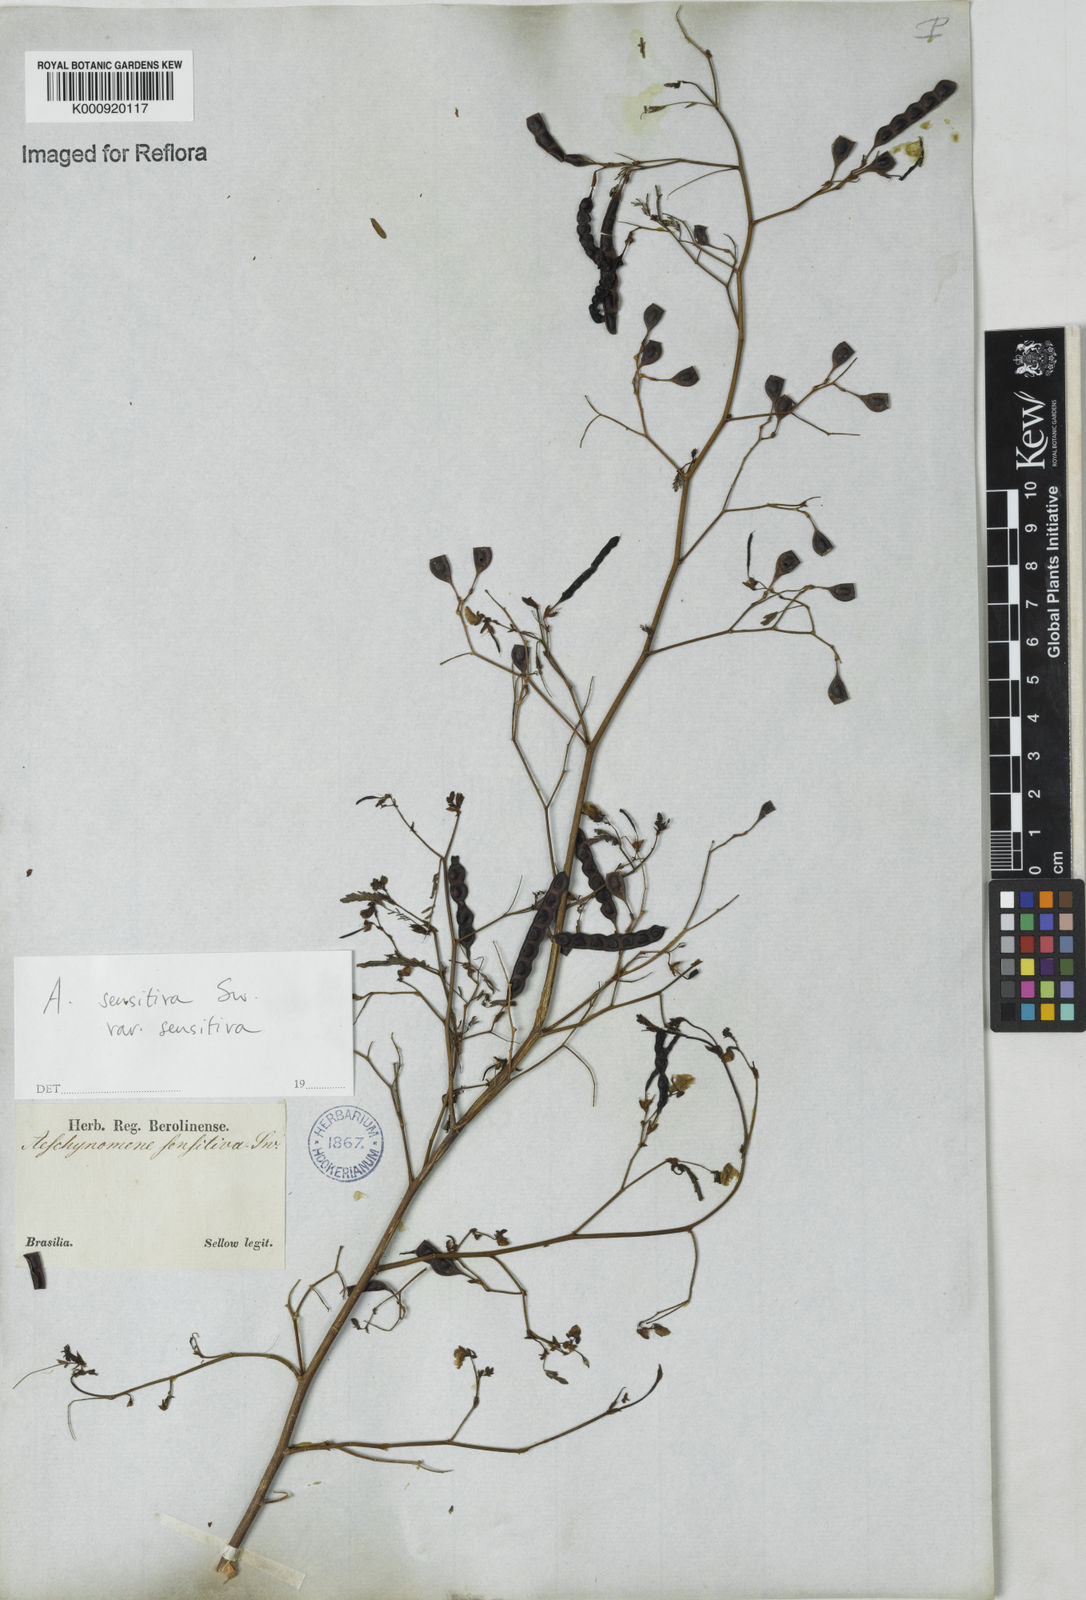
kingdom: Plantae
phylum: Tracheophyta
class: Magnoliopsida
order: Fabales
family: Fabaceae
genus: Aeschynomene
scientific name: Aeschynomene sensitiva
